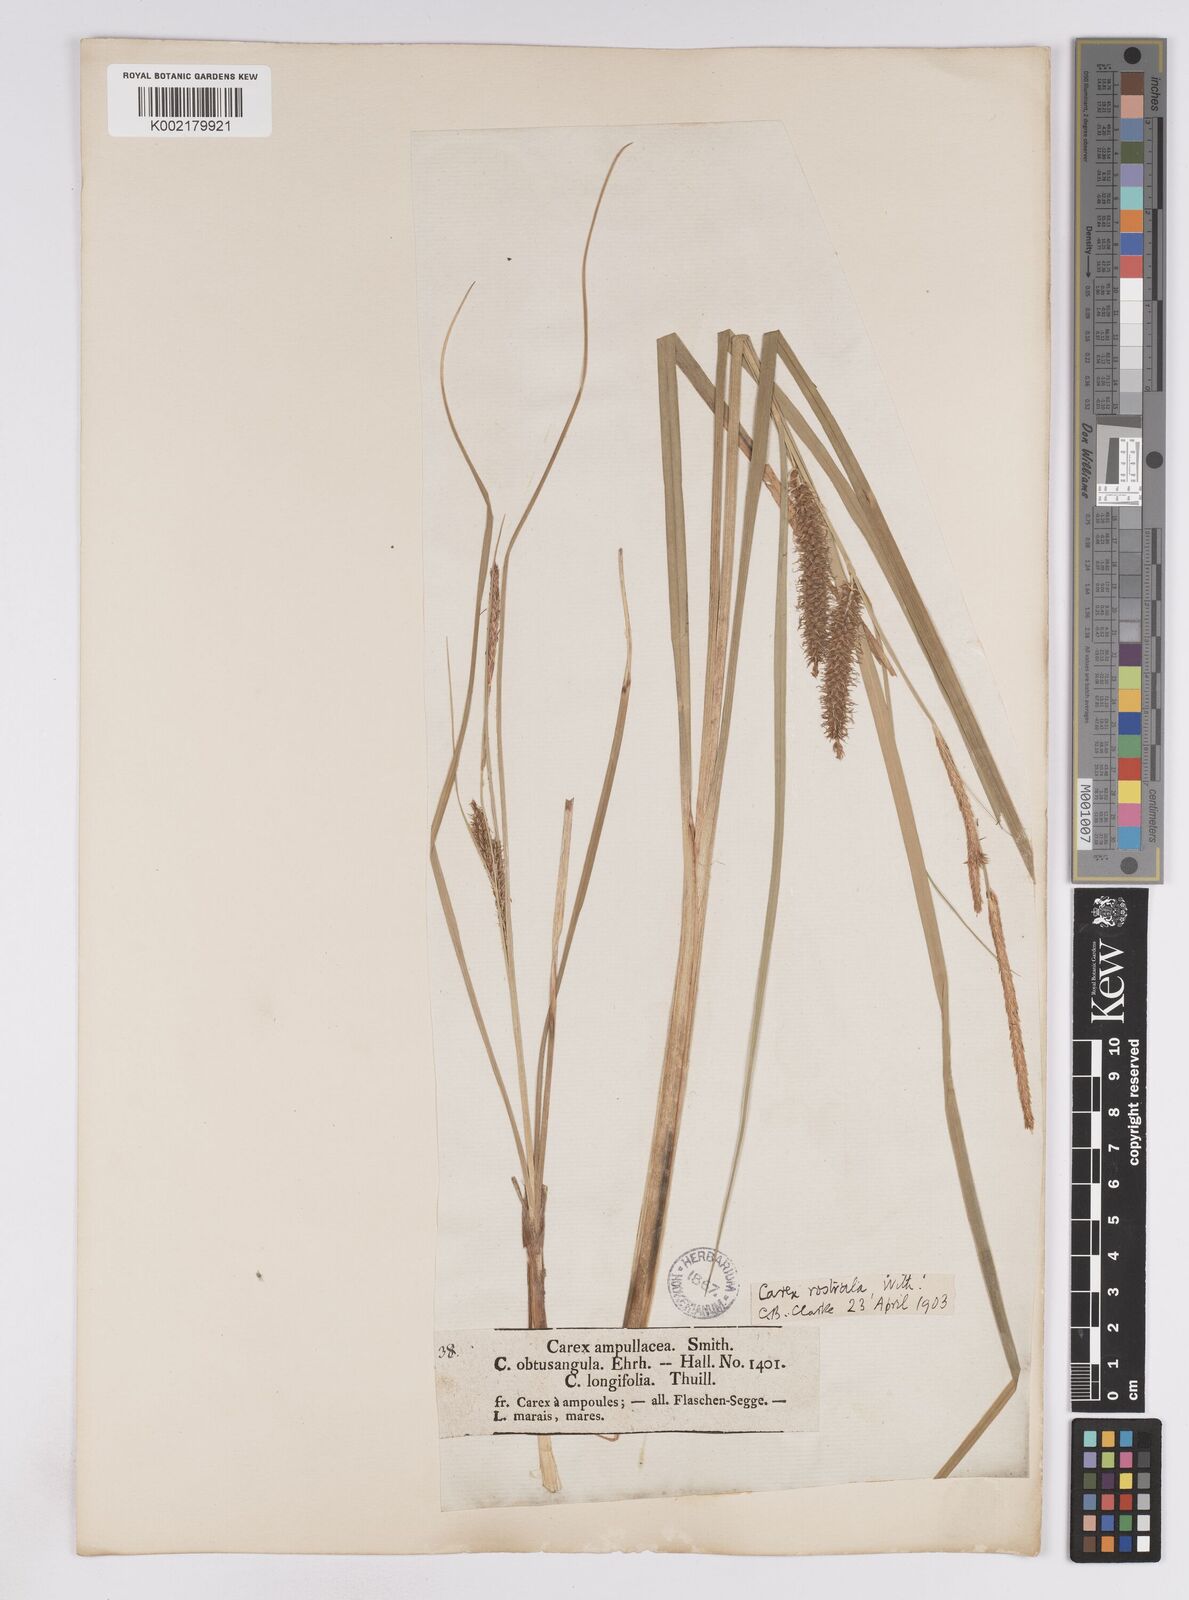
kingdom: Plantae
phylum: Tracheophyta
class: Liliopsida
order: Poales
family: Cyperaceae
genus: Carex
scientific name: Carex rostrata
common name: Bottle sedge
